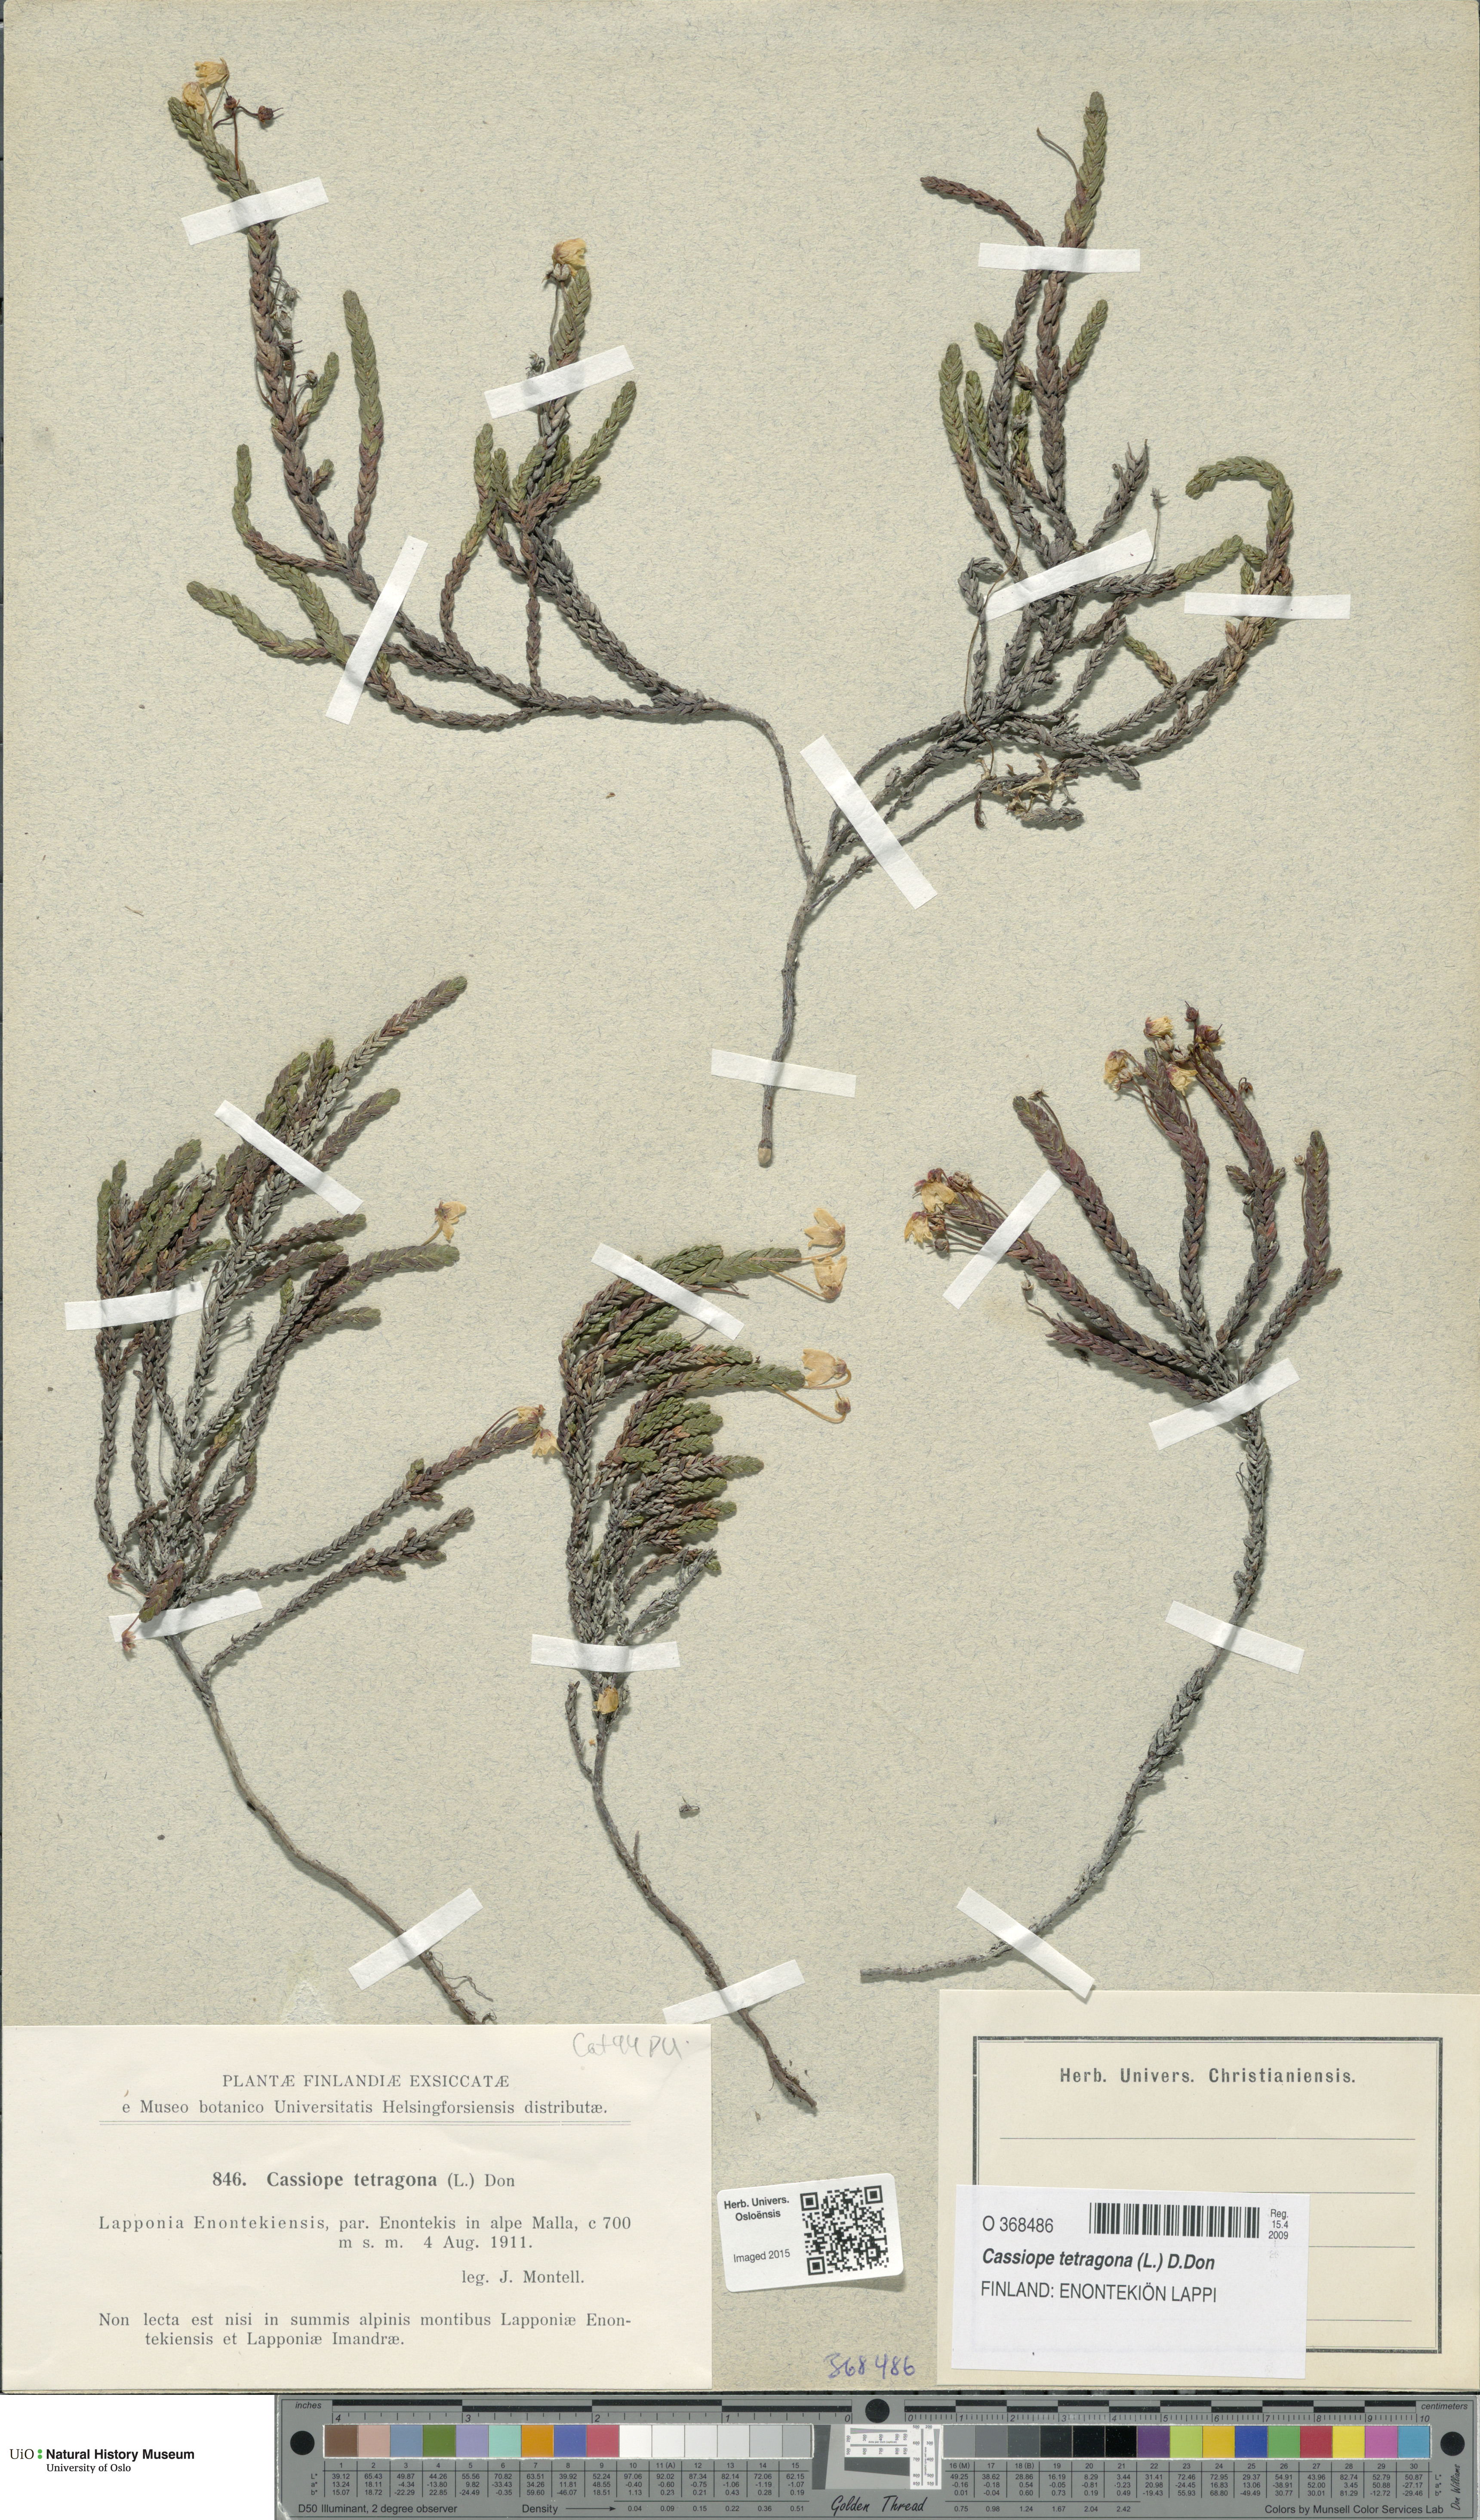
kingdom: Plantae
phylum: Tracheophyta
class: Magnoliopsida
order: Ericales
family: Ericaceae
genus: Cassiope
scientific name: Cassiope tetragona
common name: Arctic bell heather
